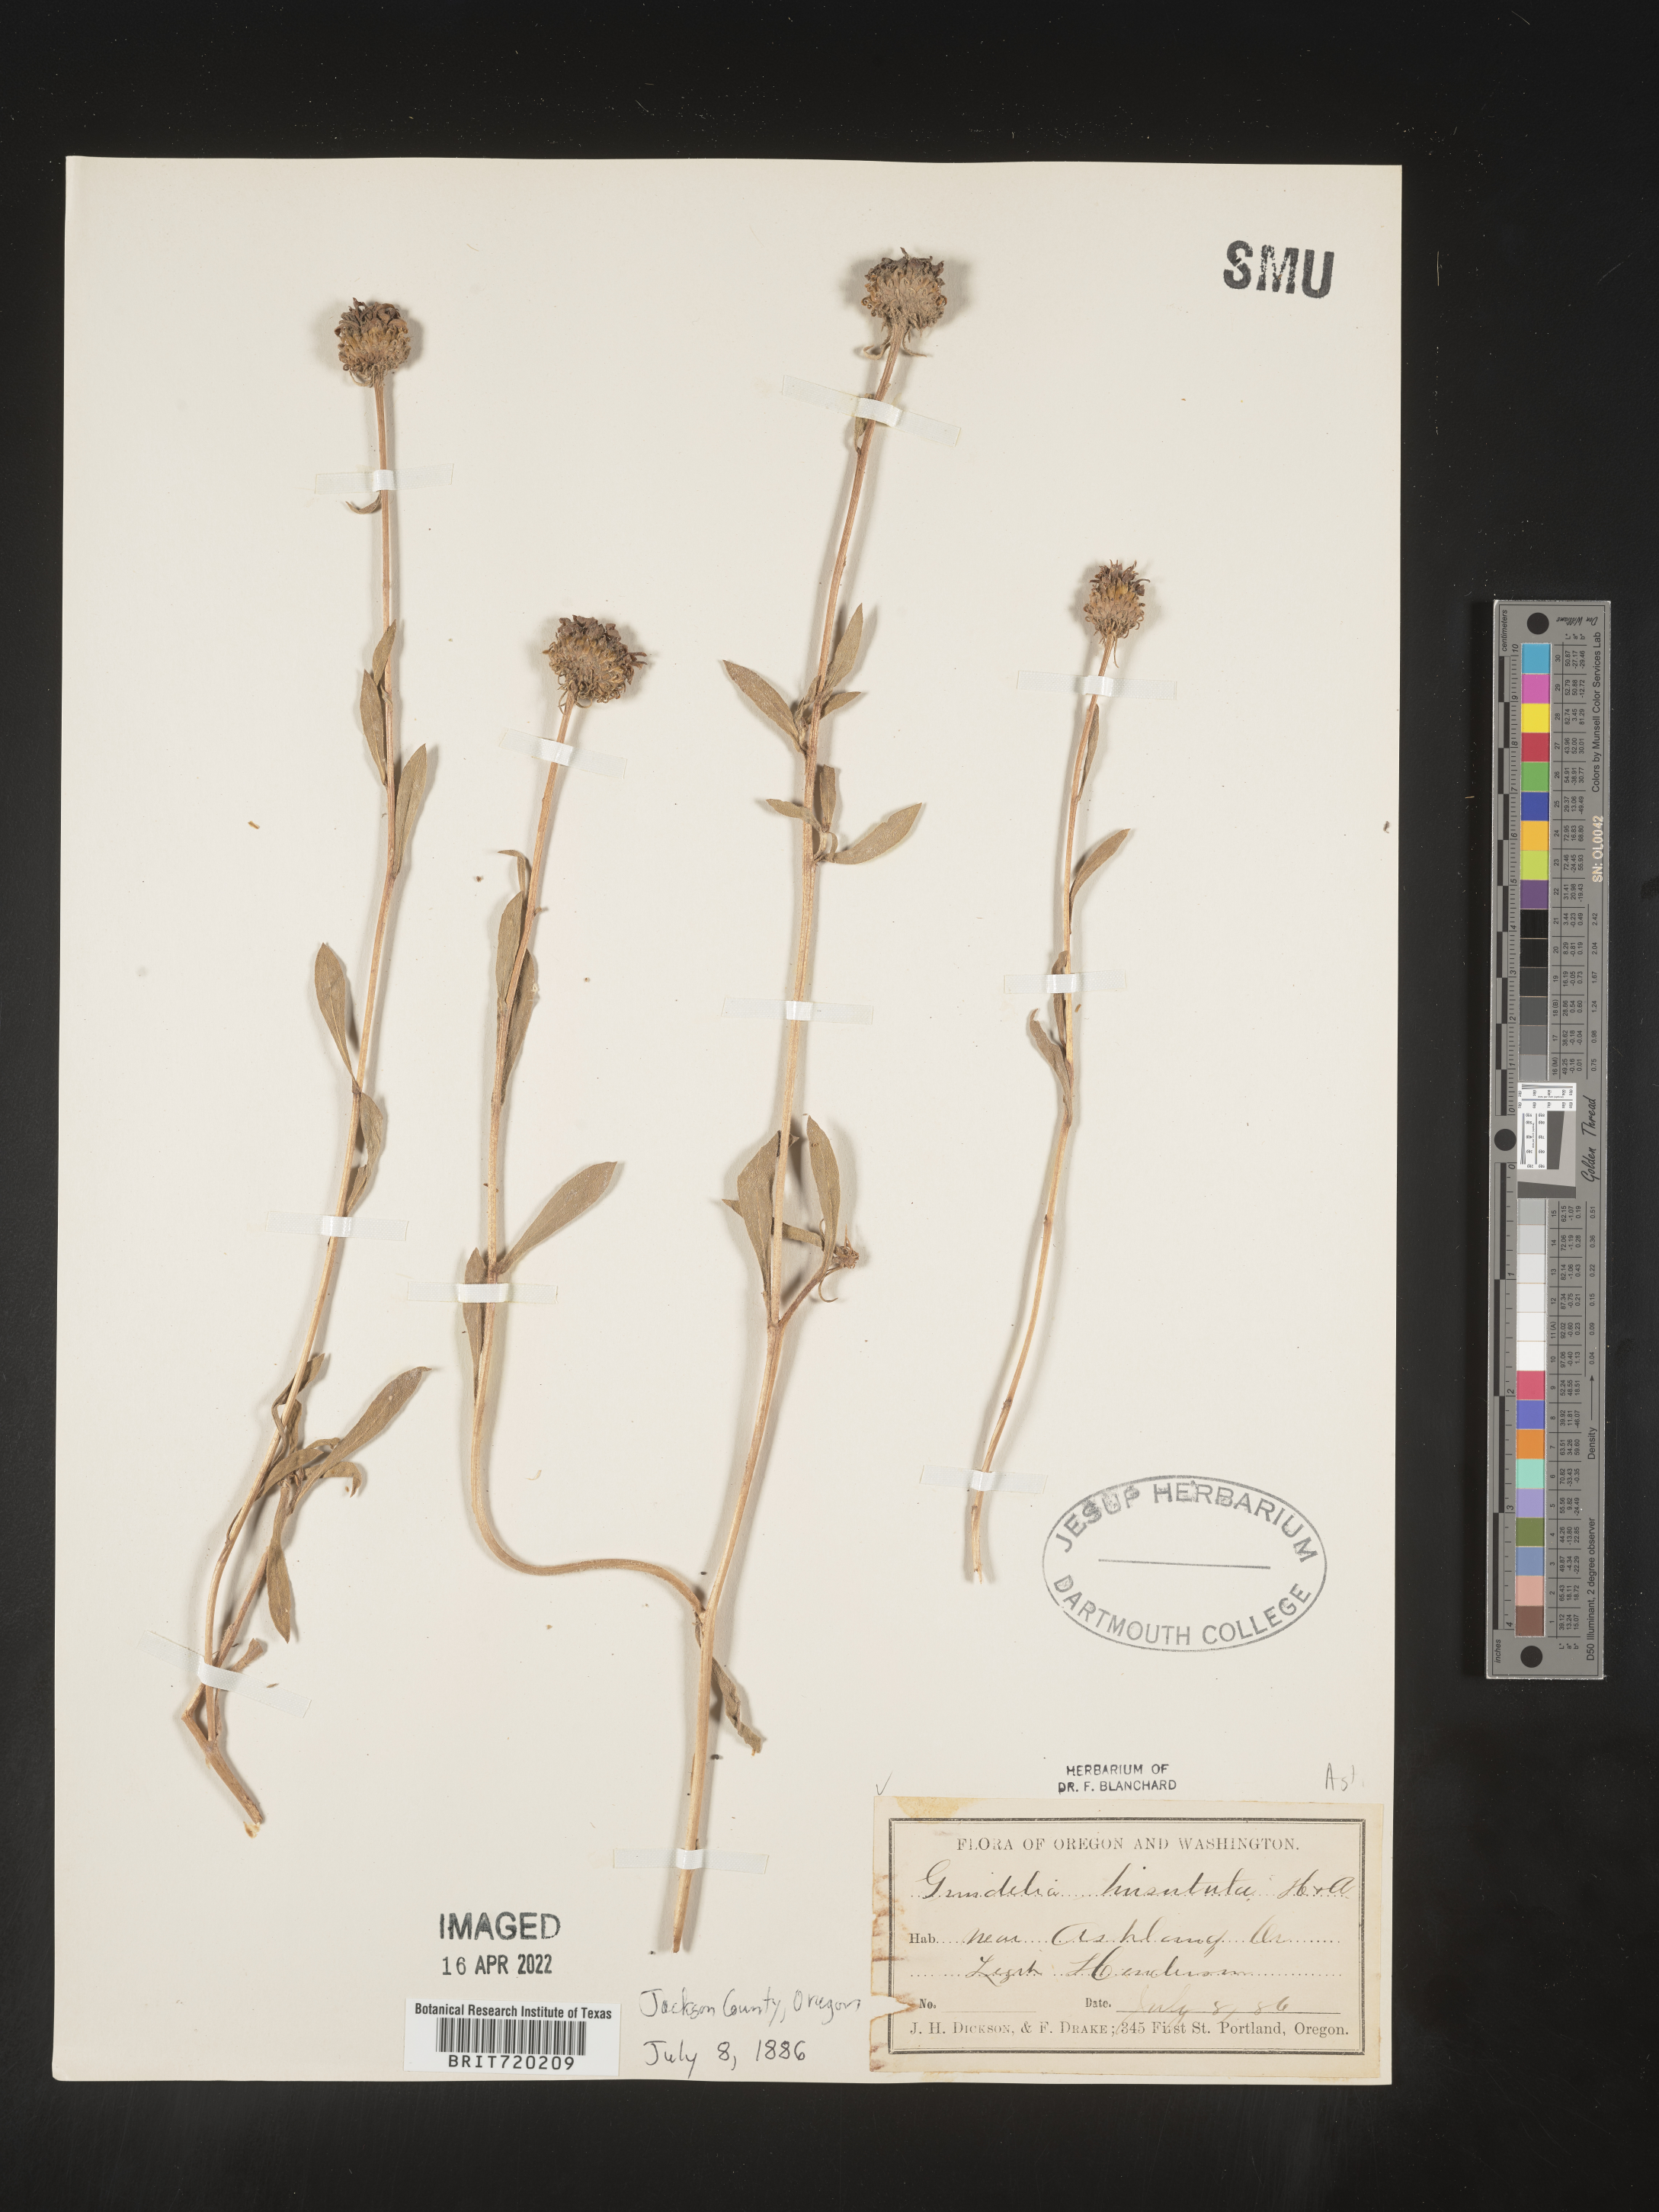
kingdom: Plantae
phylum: Tracheophyta
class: Magnoliopsida
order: Asterales
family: Asteraceae
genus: Grindelia
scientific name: Grindelia hirsutula
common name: Hairy gumweed
